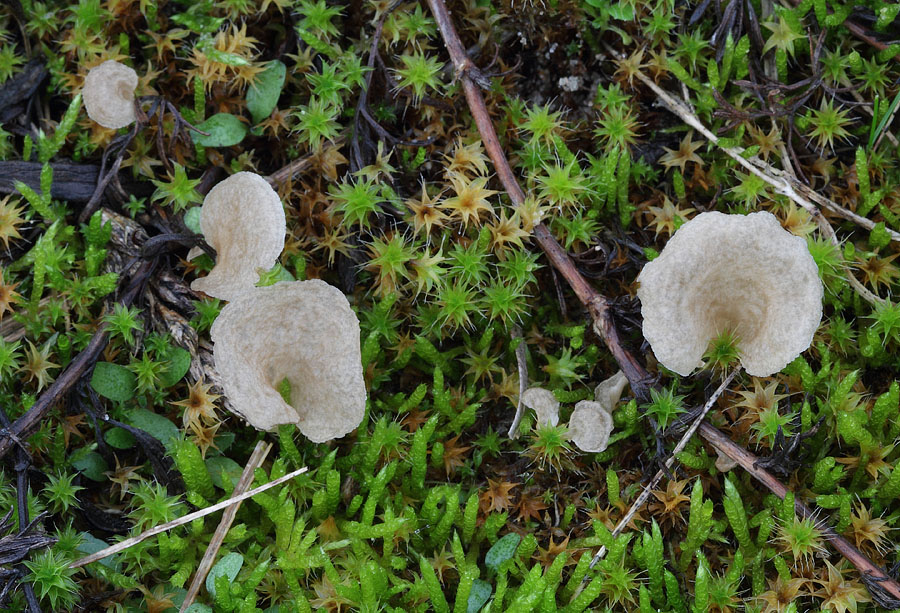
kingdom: Fungi
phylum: Basidiomycota
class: Agaricomycetes
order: Agaricales
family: Hygrophoraceae
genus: Arrhenia
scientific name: Arrhenia spathulata
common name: skæv fontænehat
